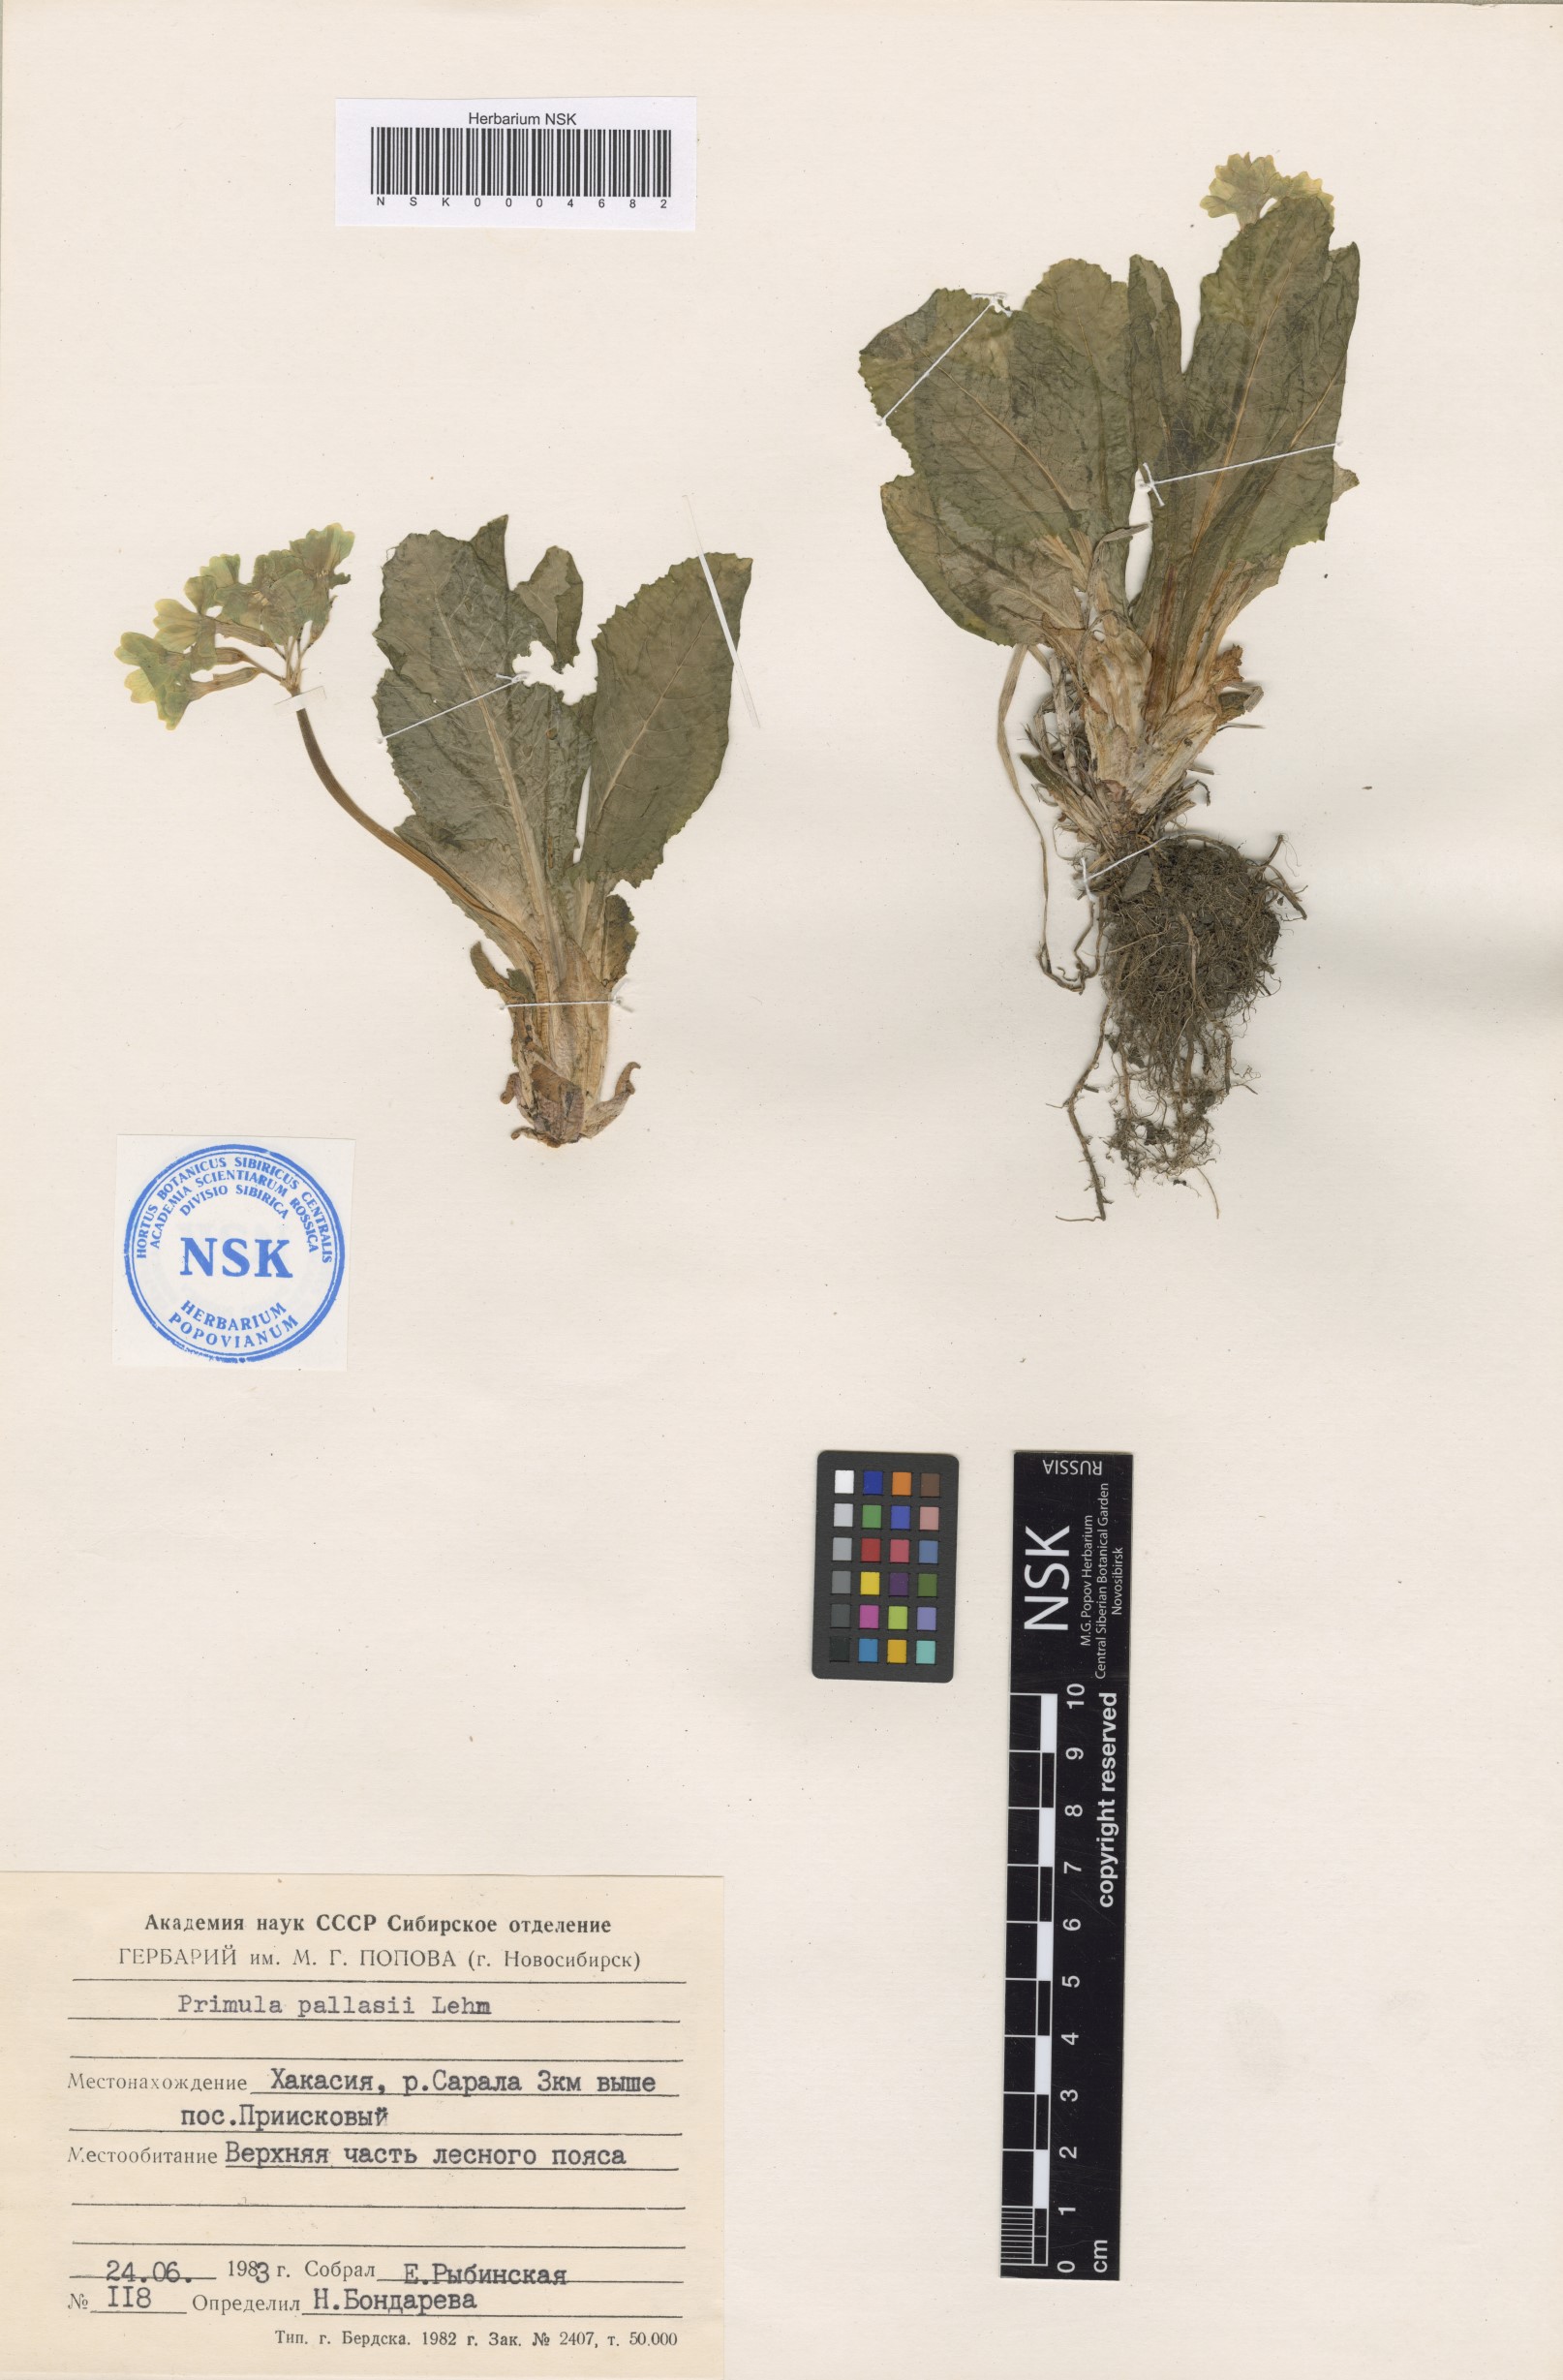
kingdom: Plantae
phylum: Tracheophyta
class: Magnoliopsida
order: Ericales
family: Primulaceae
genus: Primula
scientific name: Primula elatior
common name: Oxlip
